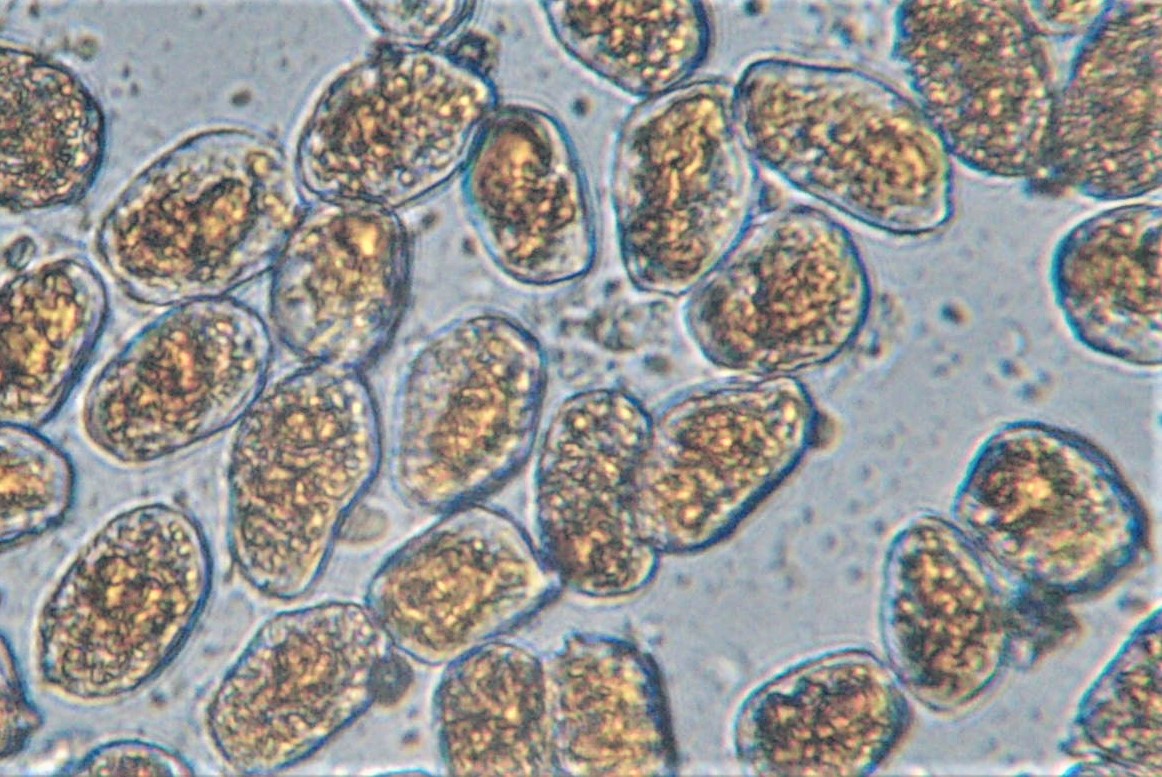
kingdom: Fungi
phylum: Basidiomycota
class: Pucciniomycetes
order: Pucciniales
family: Pucciniaceae
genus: Puccinia
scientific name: Puccinia coronata
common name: Crown rust
